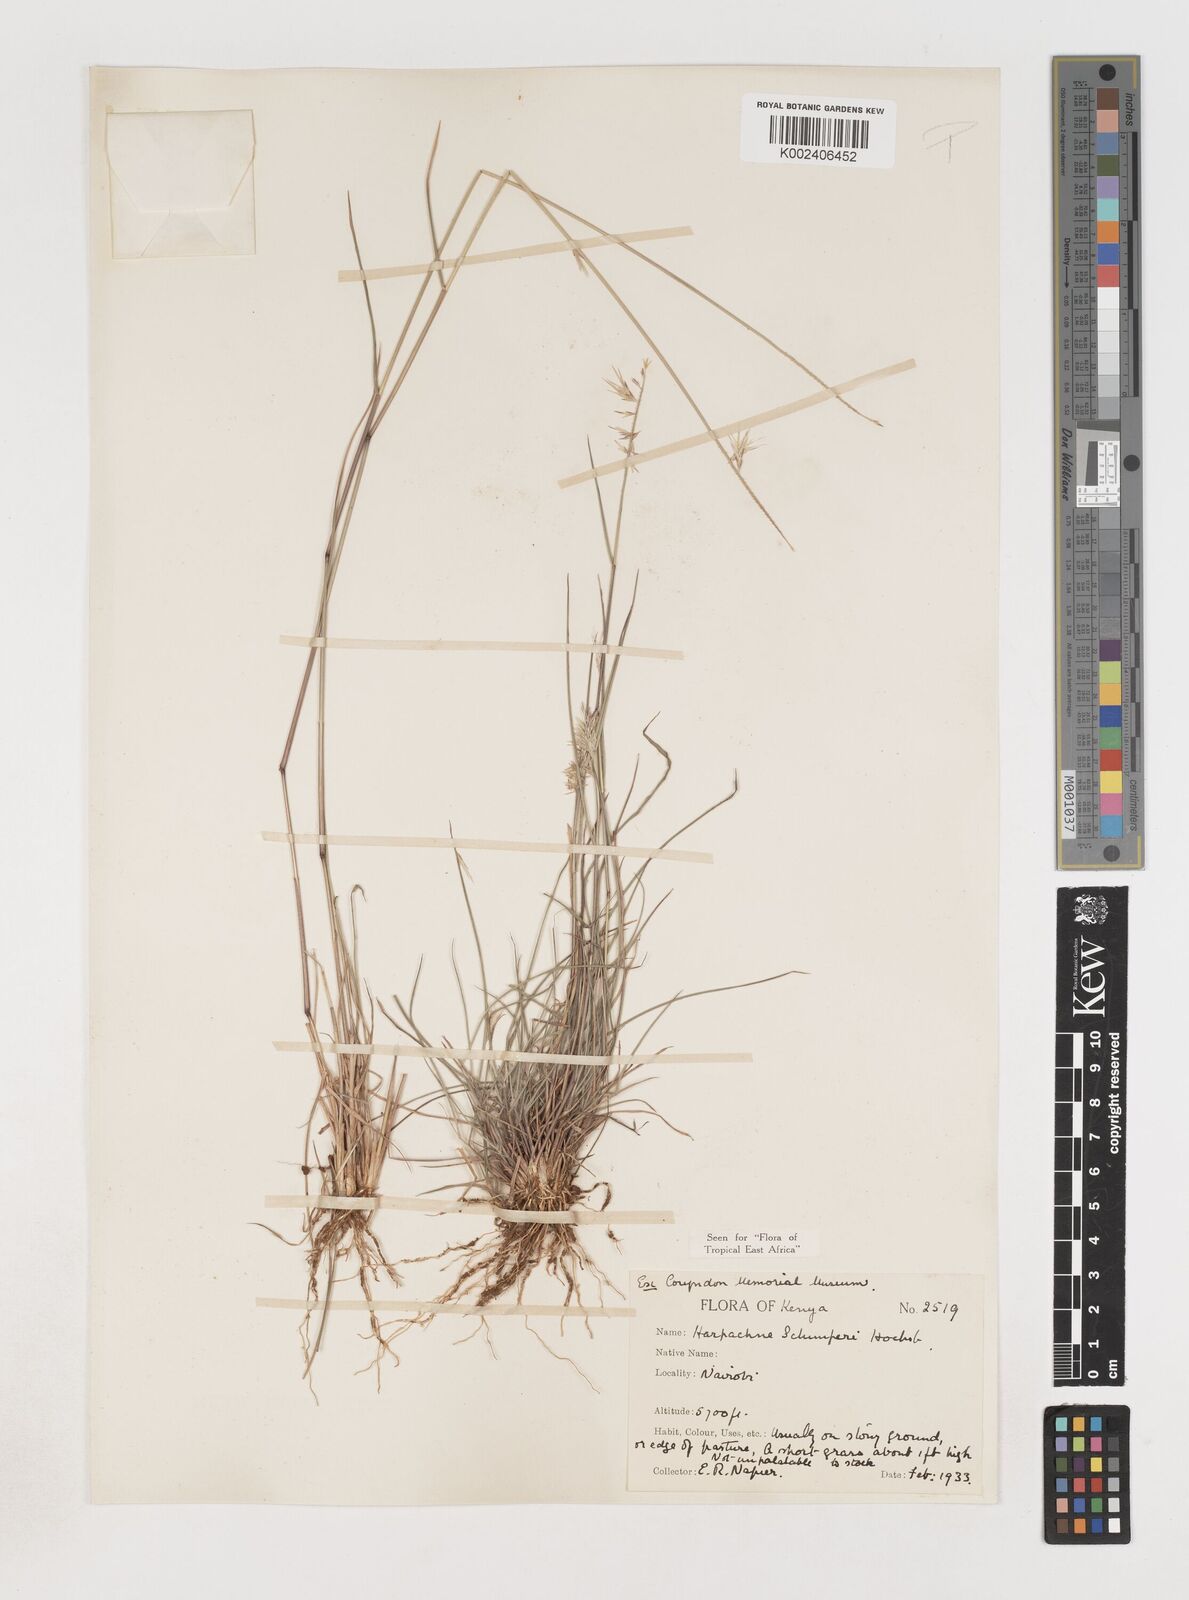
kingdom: Plantae
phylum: Tracheophyta
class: Liliopsida
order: Poales
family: Poaceae
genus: Harpachne
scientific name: Harpachne schimperi
